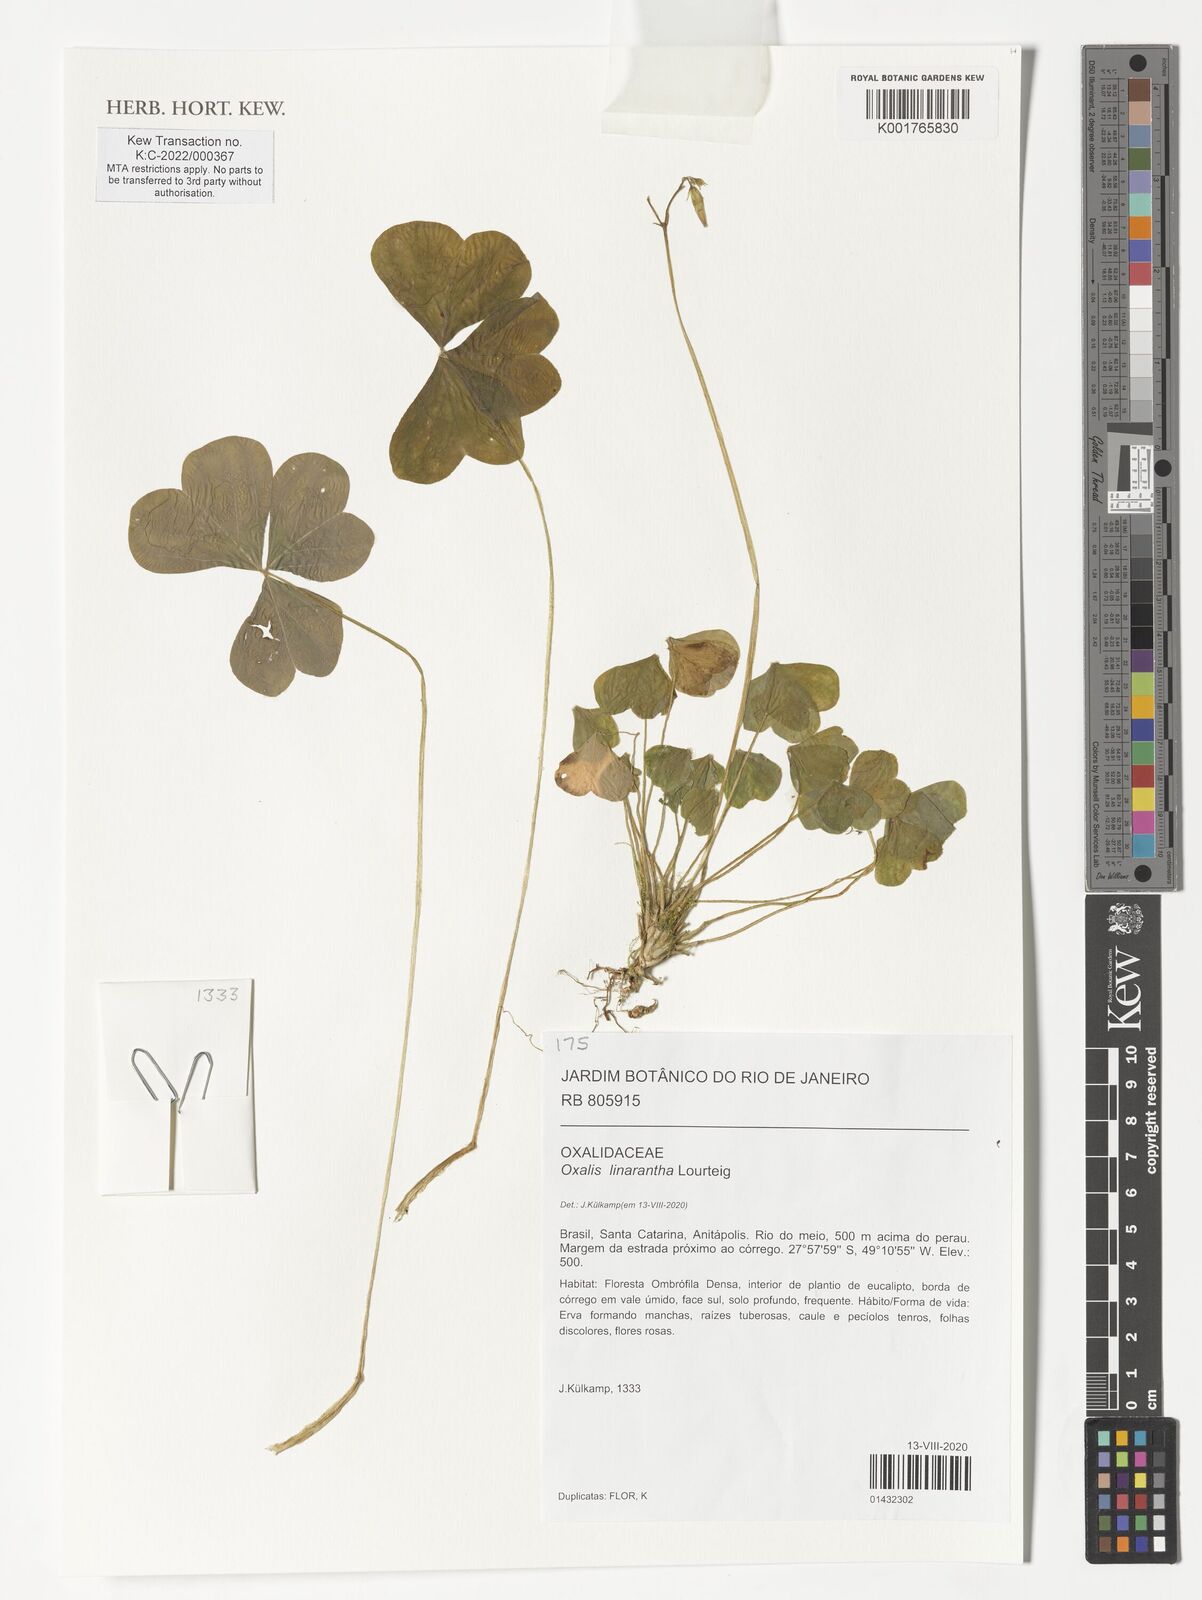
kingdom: Plantae
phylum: Tracheophyta
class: Magnoliopsida
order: Oxalidales
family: Oxalidaceae
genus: Oxalis
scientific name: Oxalis linarantha
